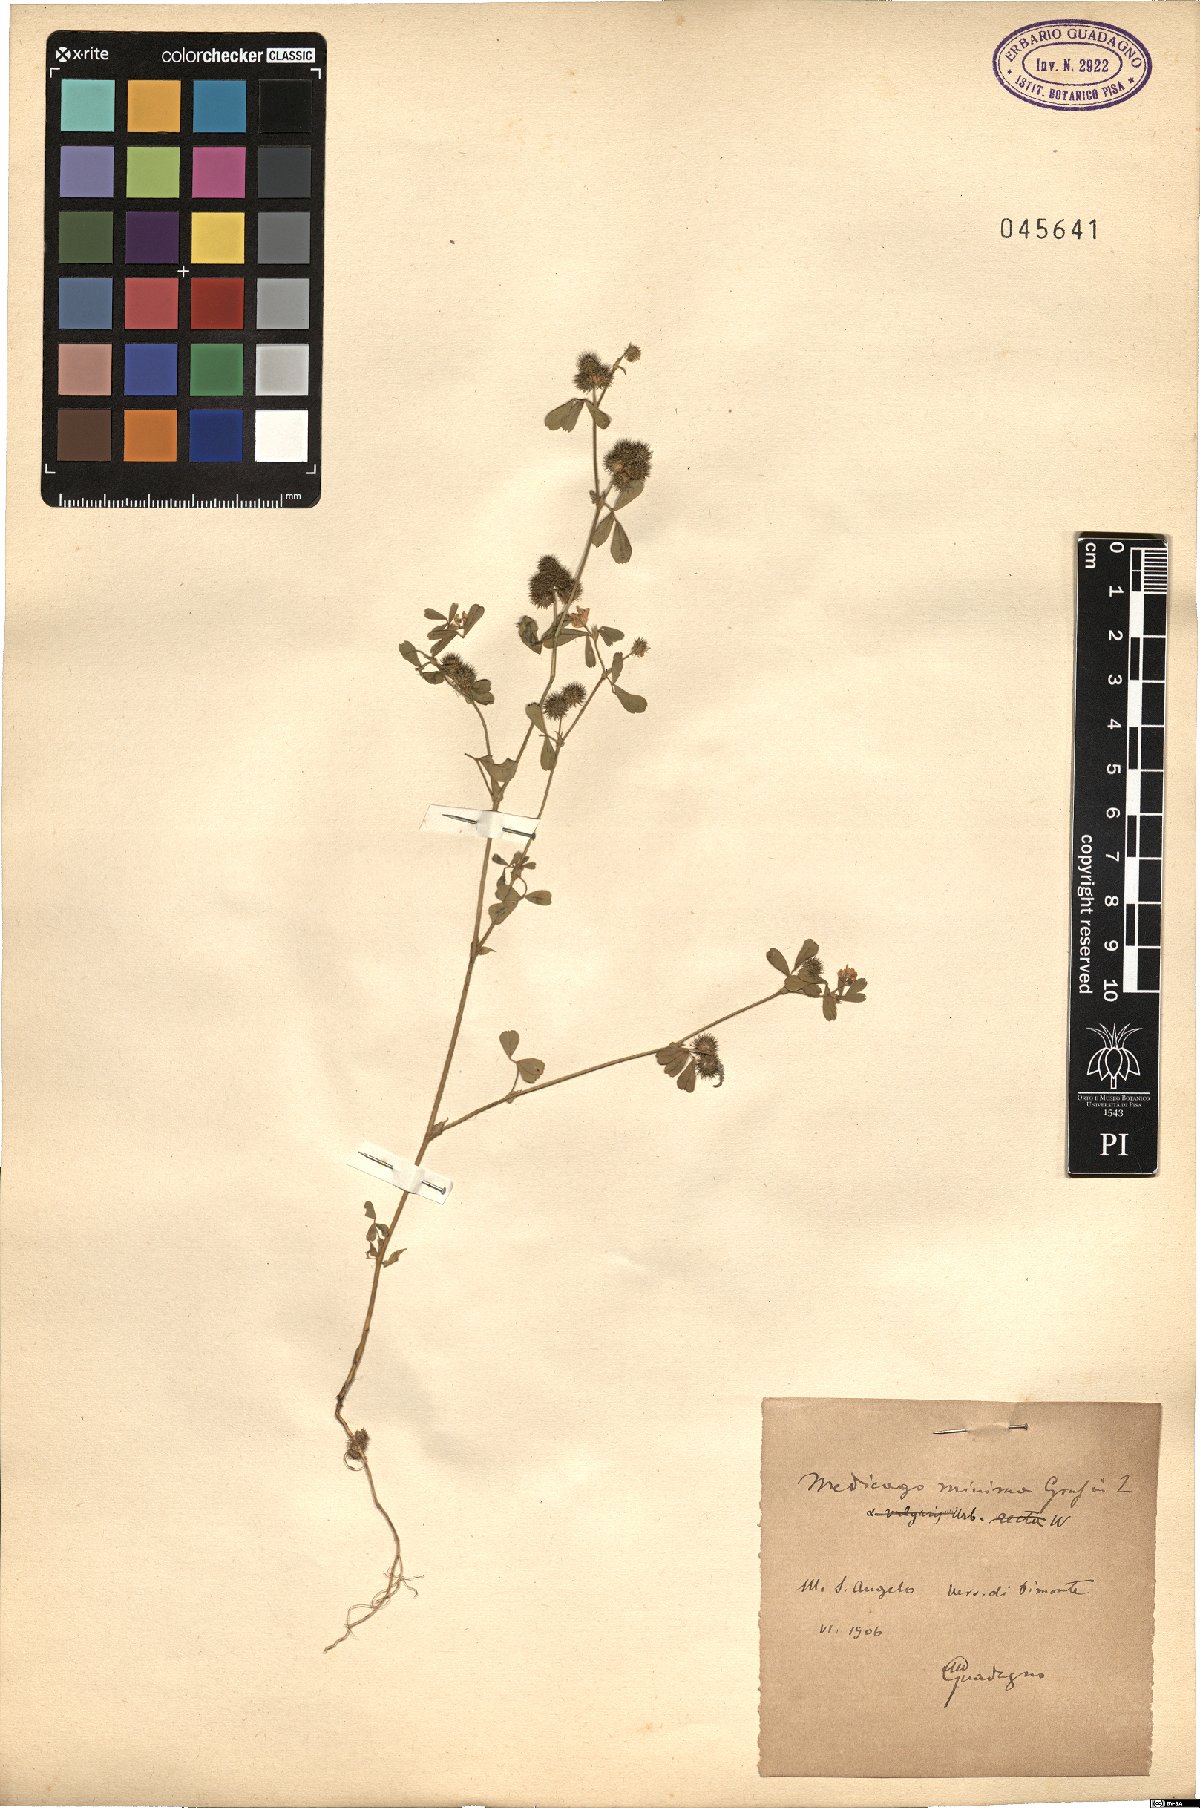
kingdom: Plantae
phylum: Tracheophyta
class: Magnoliopsida
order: Fabales
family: Fabaceae
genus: Medicago
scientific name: Medicago minima
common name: Little bur-clover
